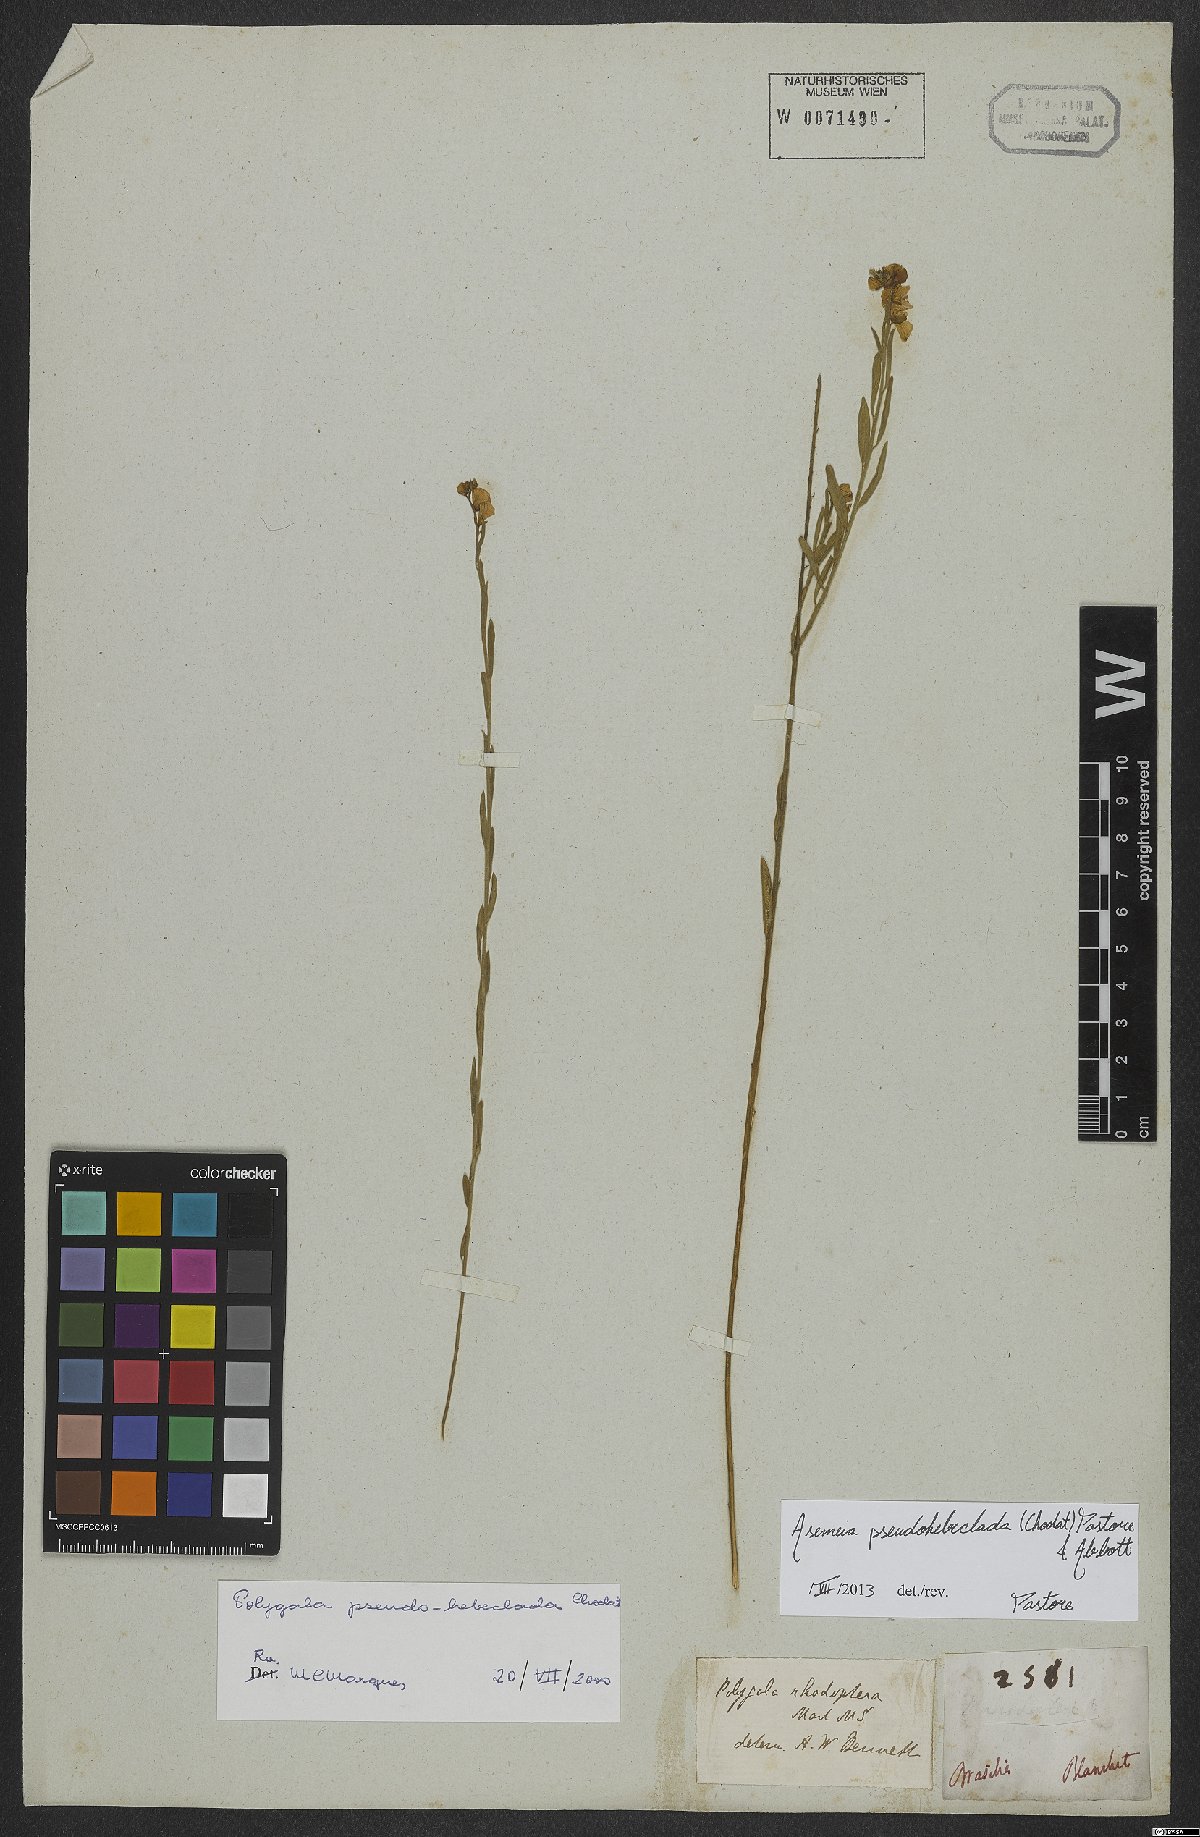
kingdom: Plantae
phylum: Tracheophyta
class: Magnoliopsida
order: Fabales
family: Polygalaceae
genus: Asemeia
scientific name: Asemeia pseudohebeclada
